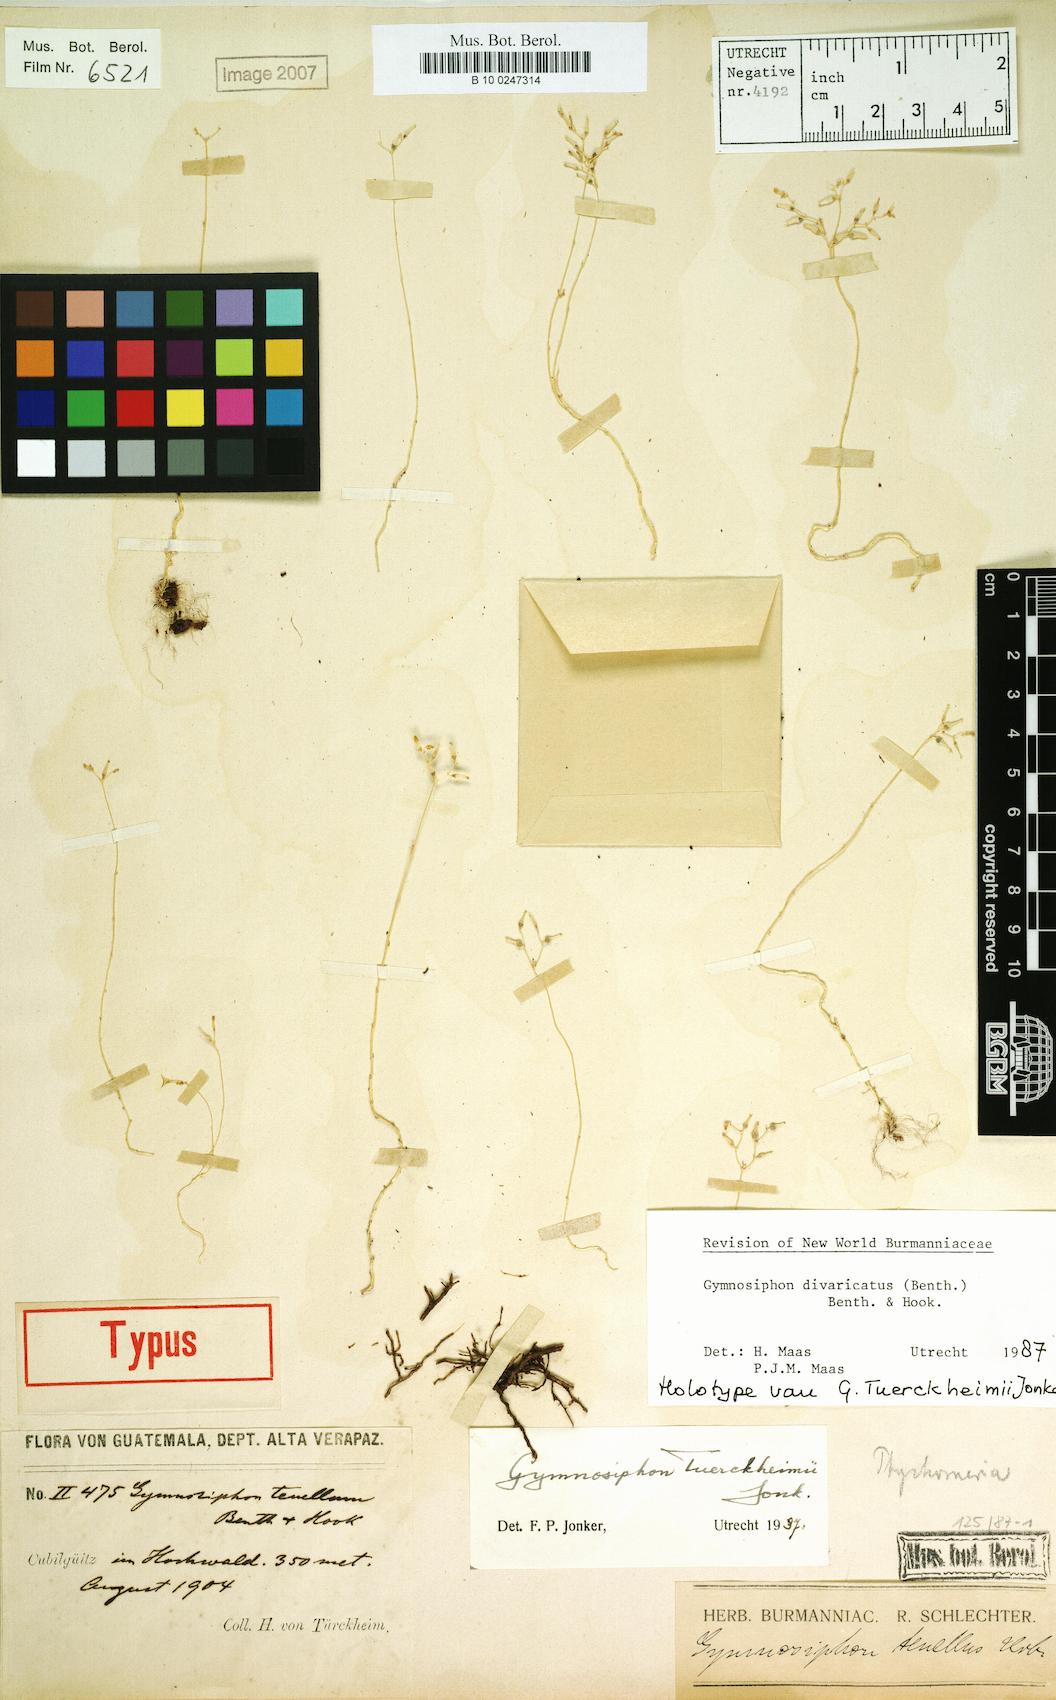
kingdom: Plantae
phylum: Tracheophyta
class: Liliopsida
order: Dioscoreales
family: Burmanniaceae
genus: Gymnosiphon
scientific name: Gymnosiphon divaricatus
